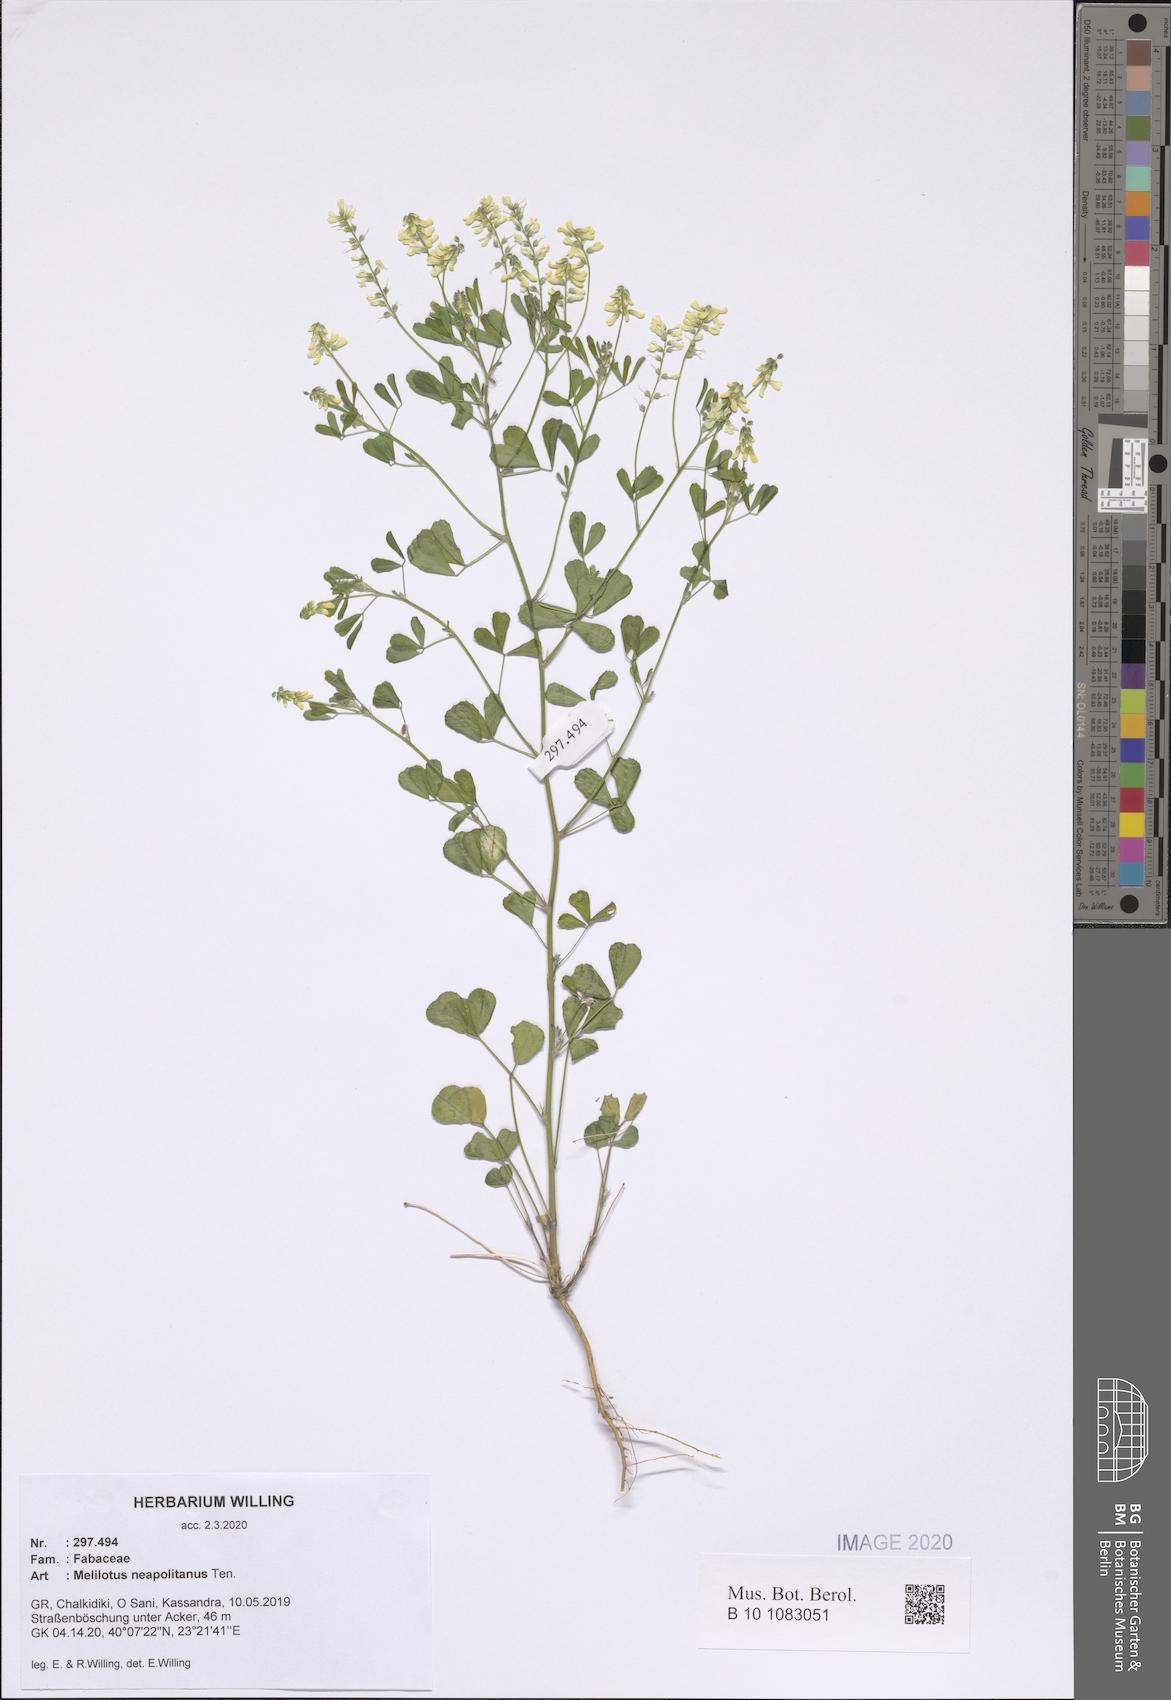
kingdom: Plantae
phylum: Tracheophyta
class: Magnoliopsida
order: Fabales
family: Fabaceae
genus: Melilotus
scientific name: Melilotus neapolitanus
